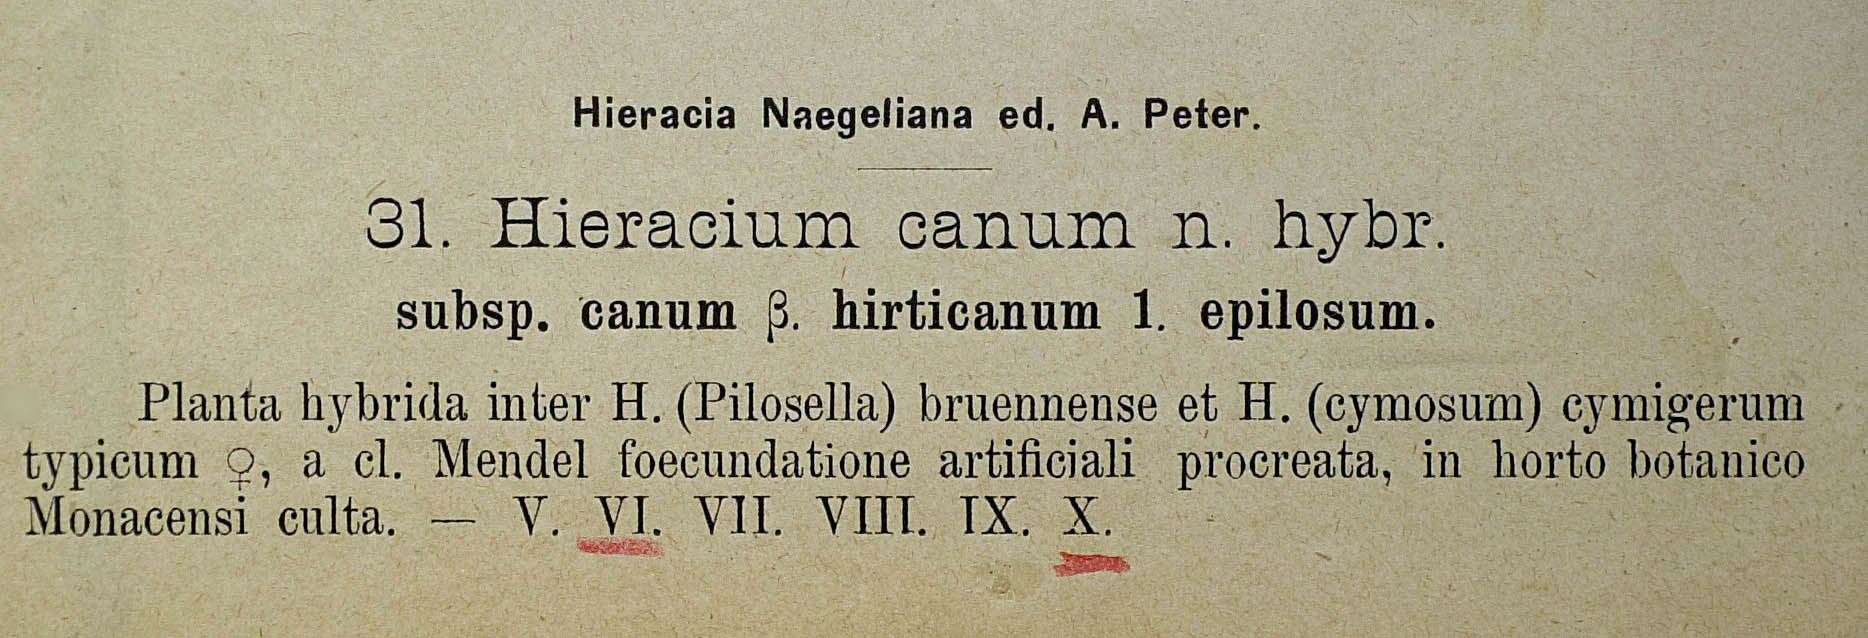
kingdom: Plantae
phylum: Tracheophyta
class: Magnoliopsida
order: Asterales
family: Asteraceae
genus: Pilosella
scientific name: Pilosella acutifolia
